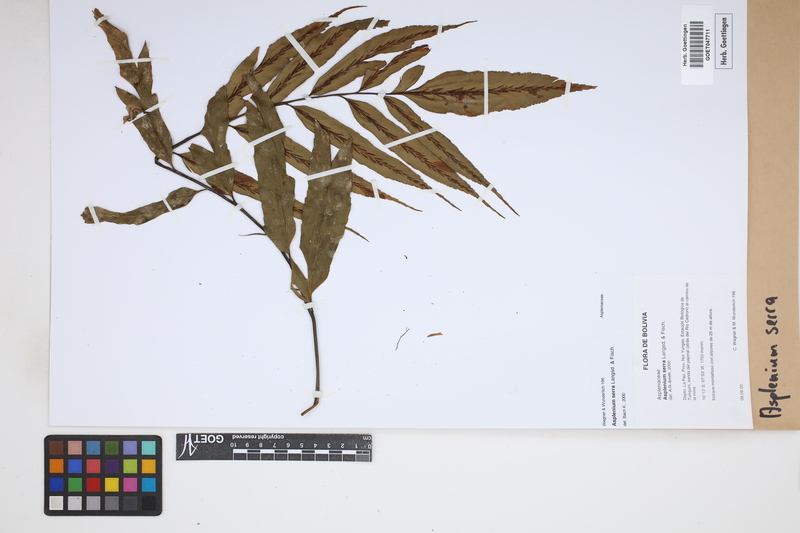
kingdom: Plantae
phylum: Tracheophyta
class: Polypodiopsida
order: Polypodiales
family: Aspleniaceae
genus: Asplenium
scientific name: Asplenium serra
